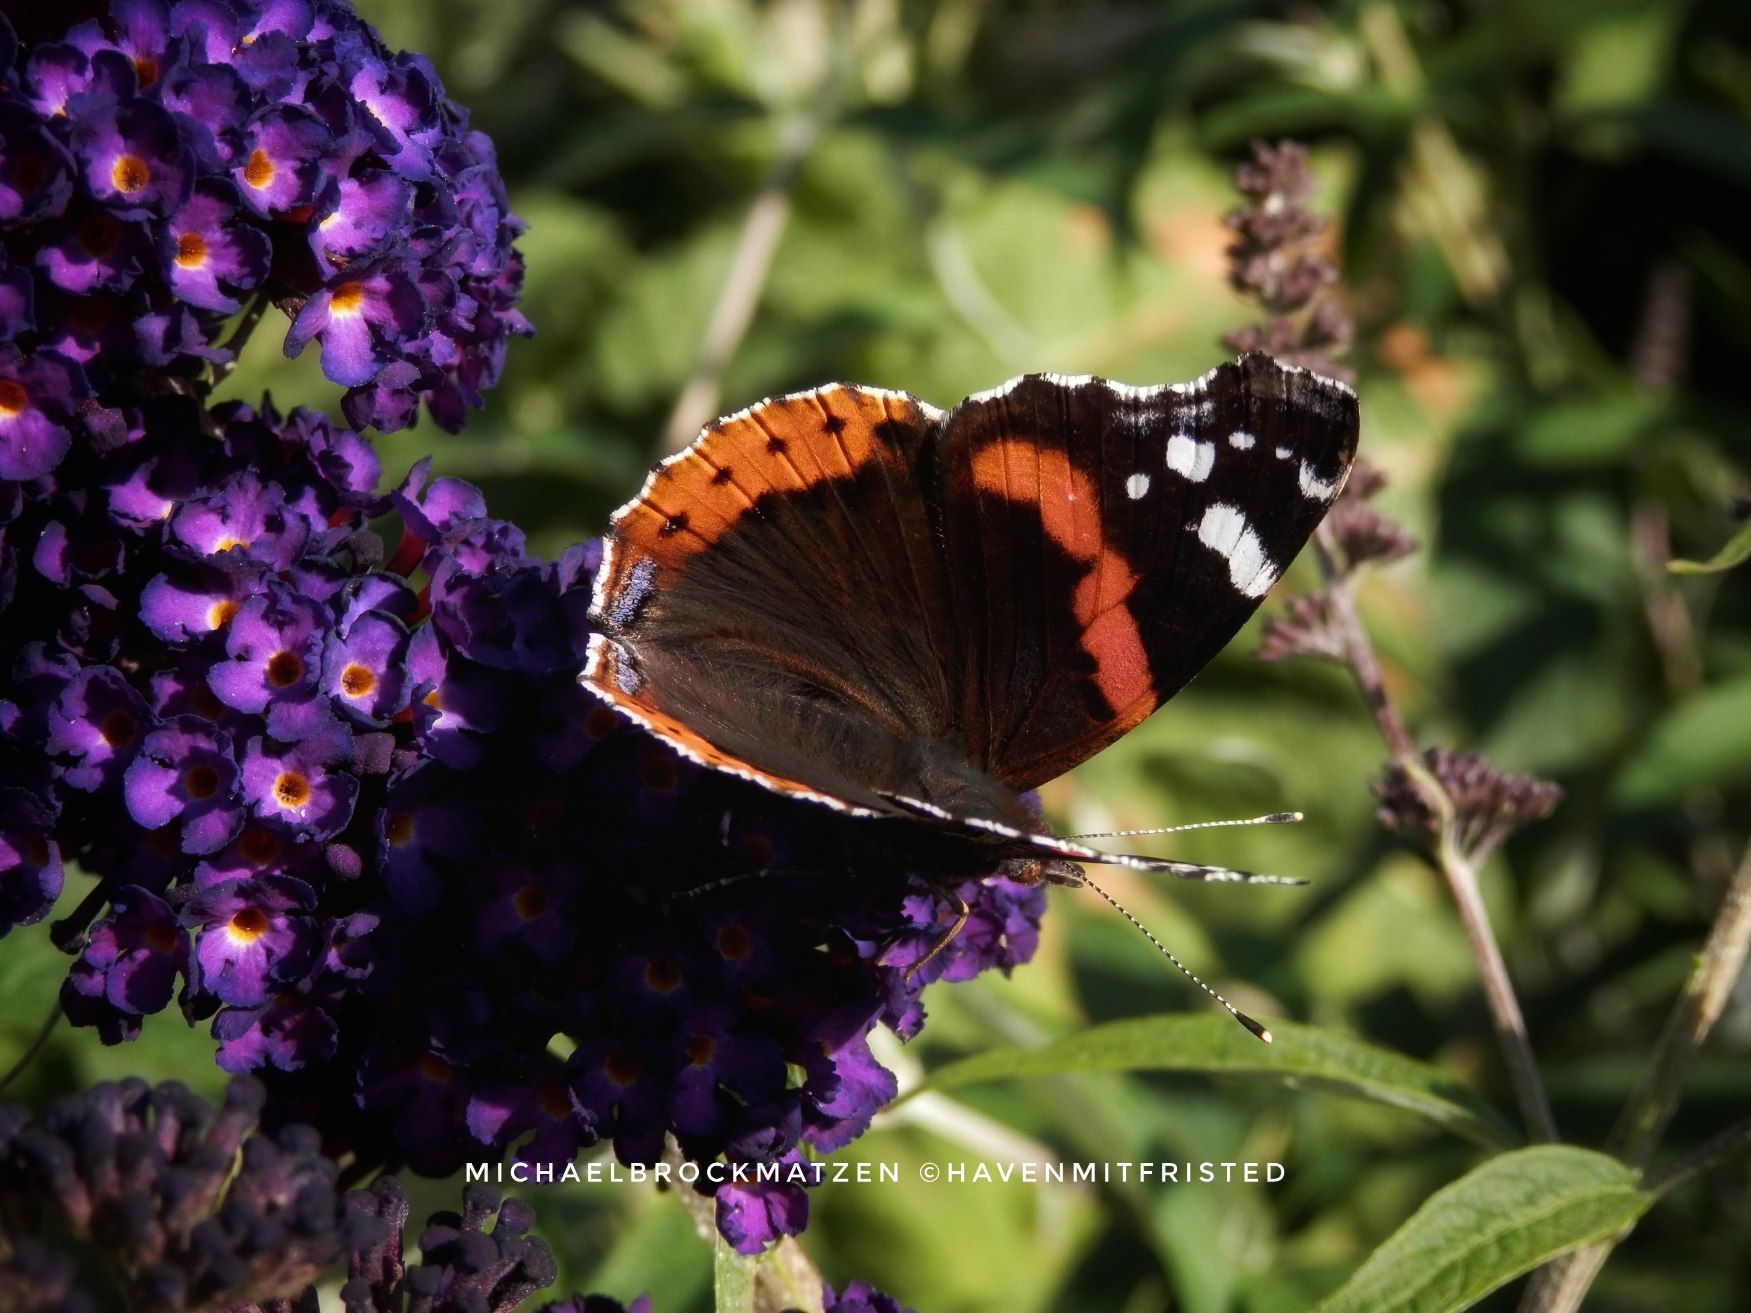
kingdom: Animalia
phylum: Arthropoda
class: Insecta
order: Lepidoptera
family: Nymphalidae
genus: Vanessa
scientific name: Vanessa atalanta
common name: Admiral
